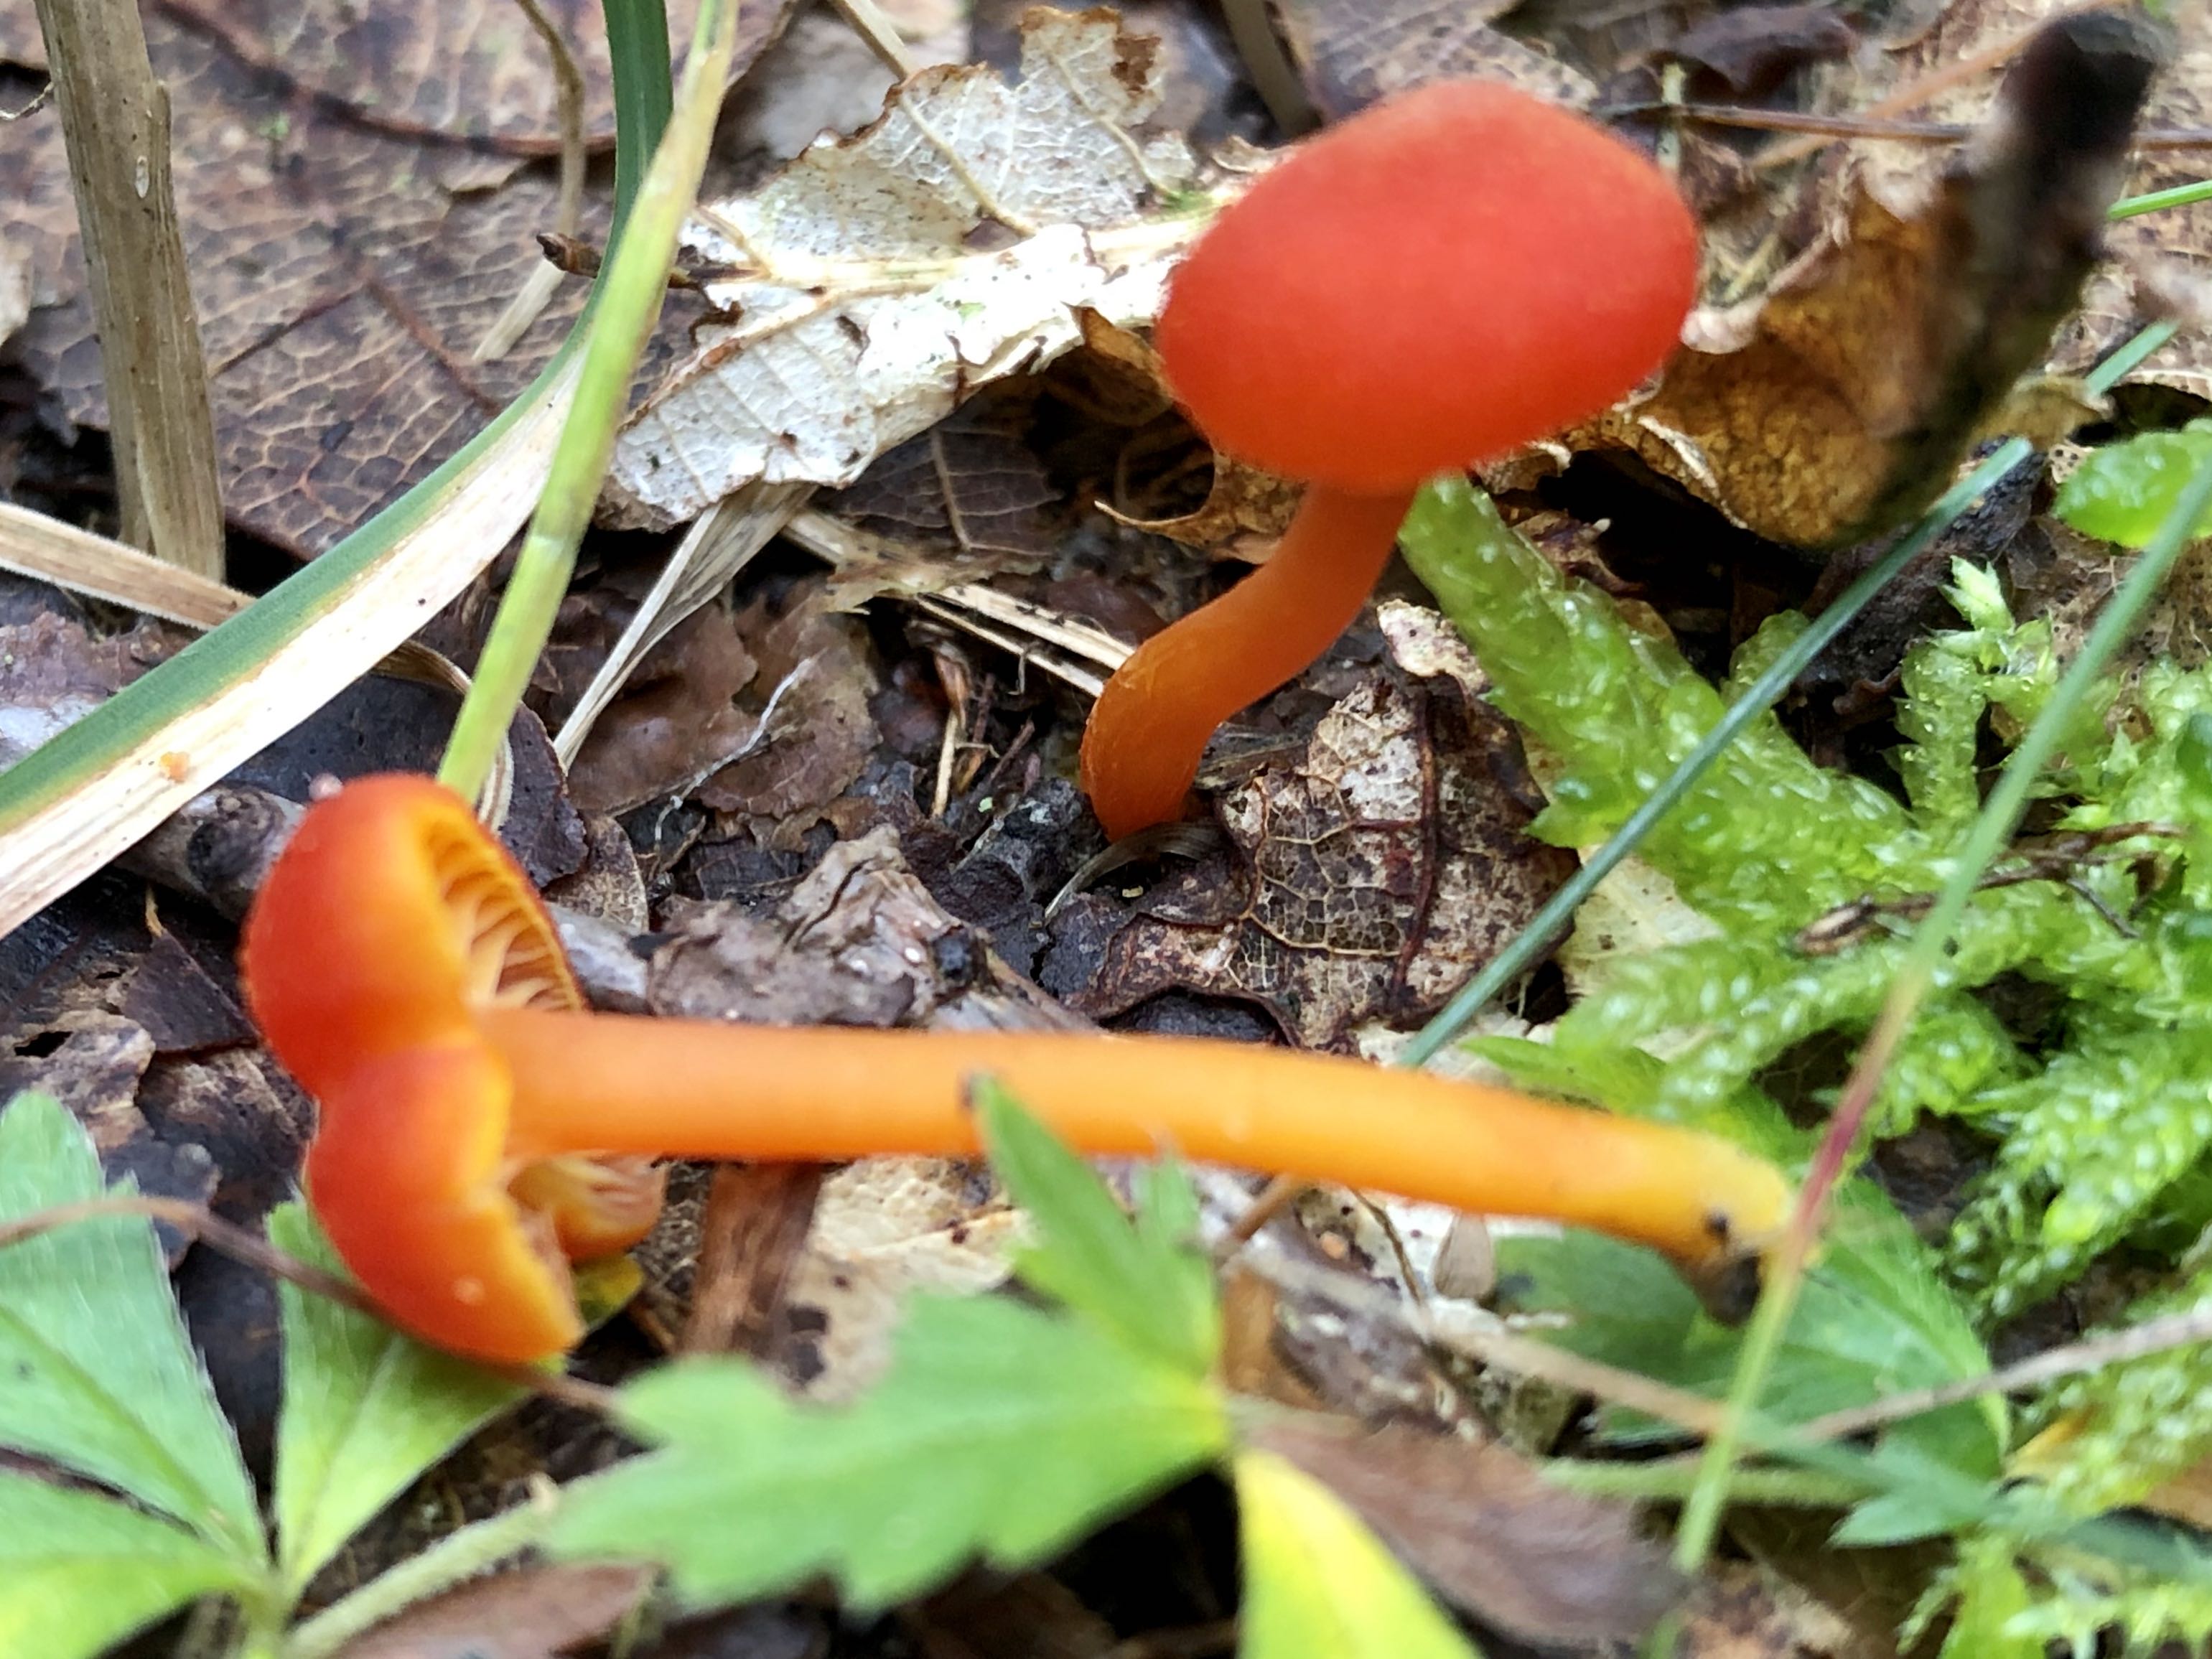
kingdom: Fungi
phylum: Basidiomycota
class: Agaricomycetes
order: Agaricales
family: Hygrophoraceae
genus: Hygrocybe
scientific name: Hygrocybe
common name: vokshat
